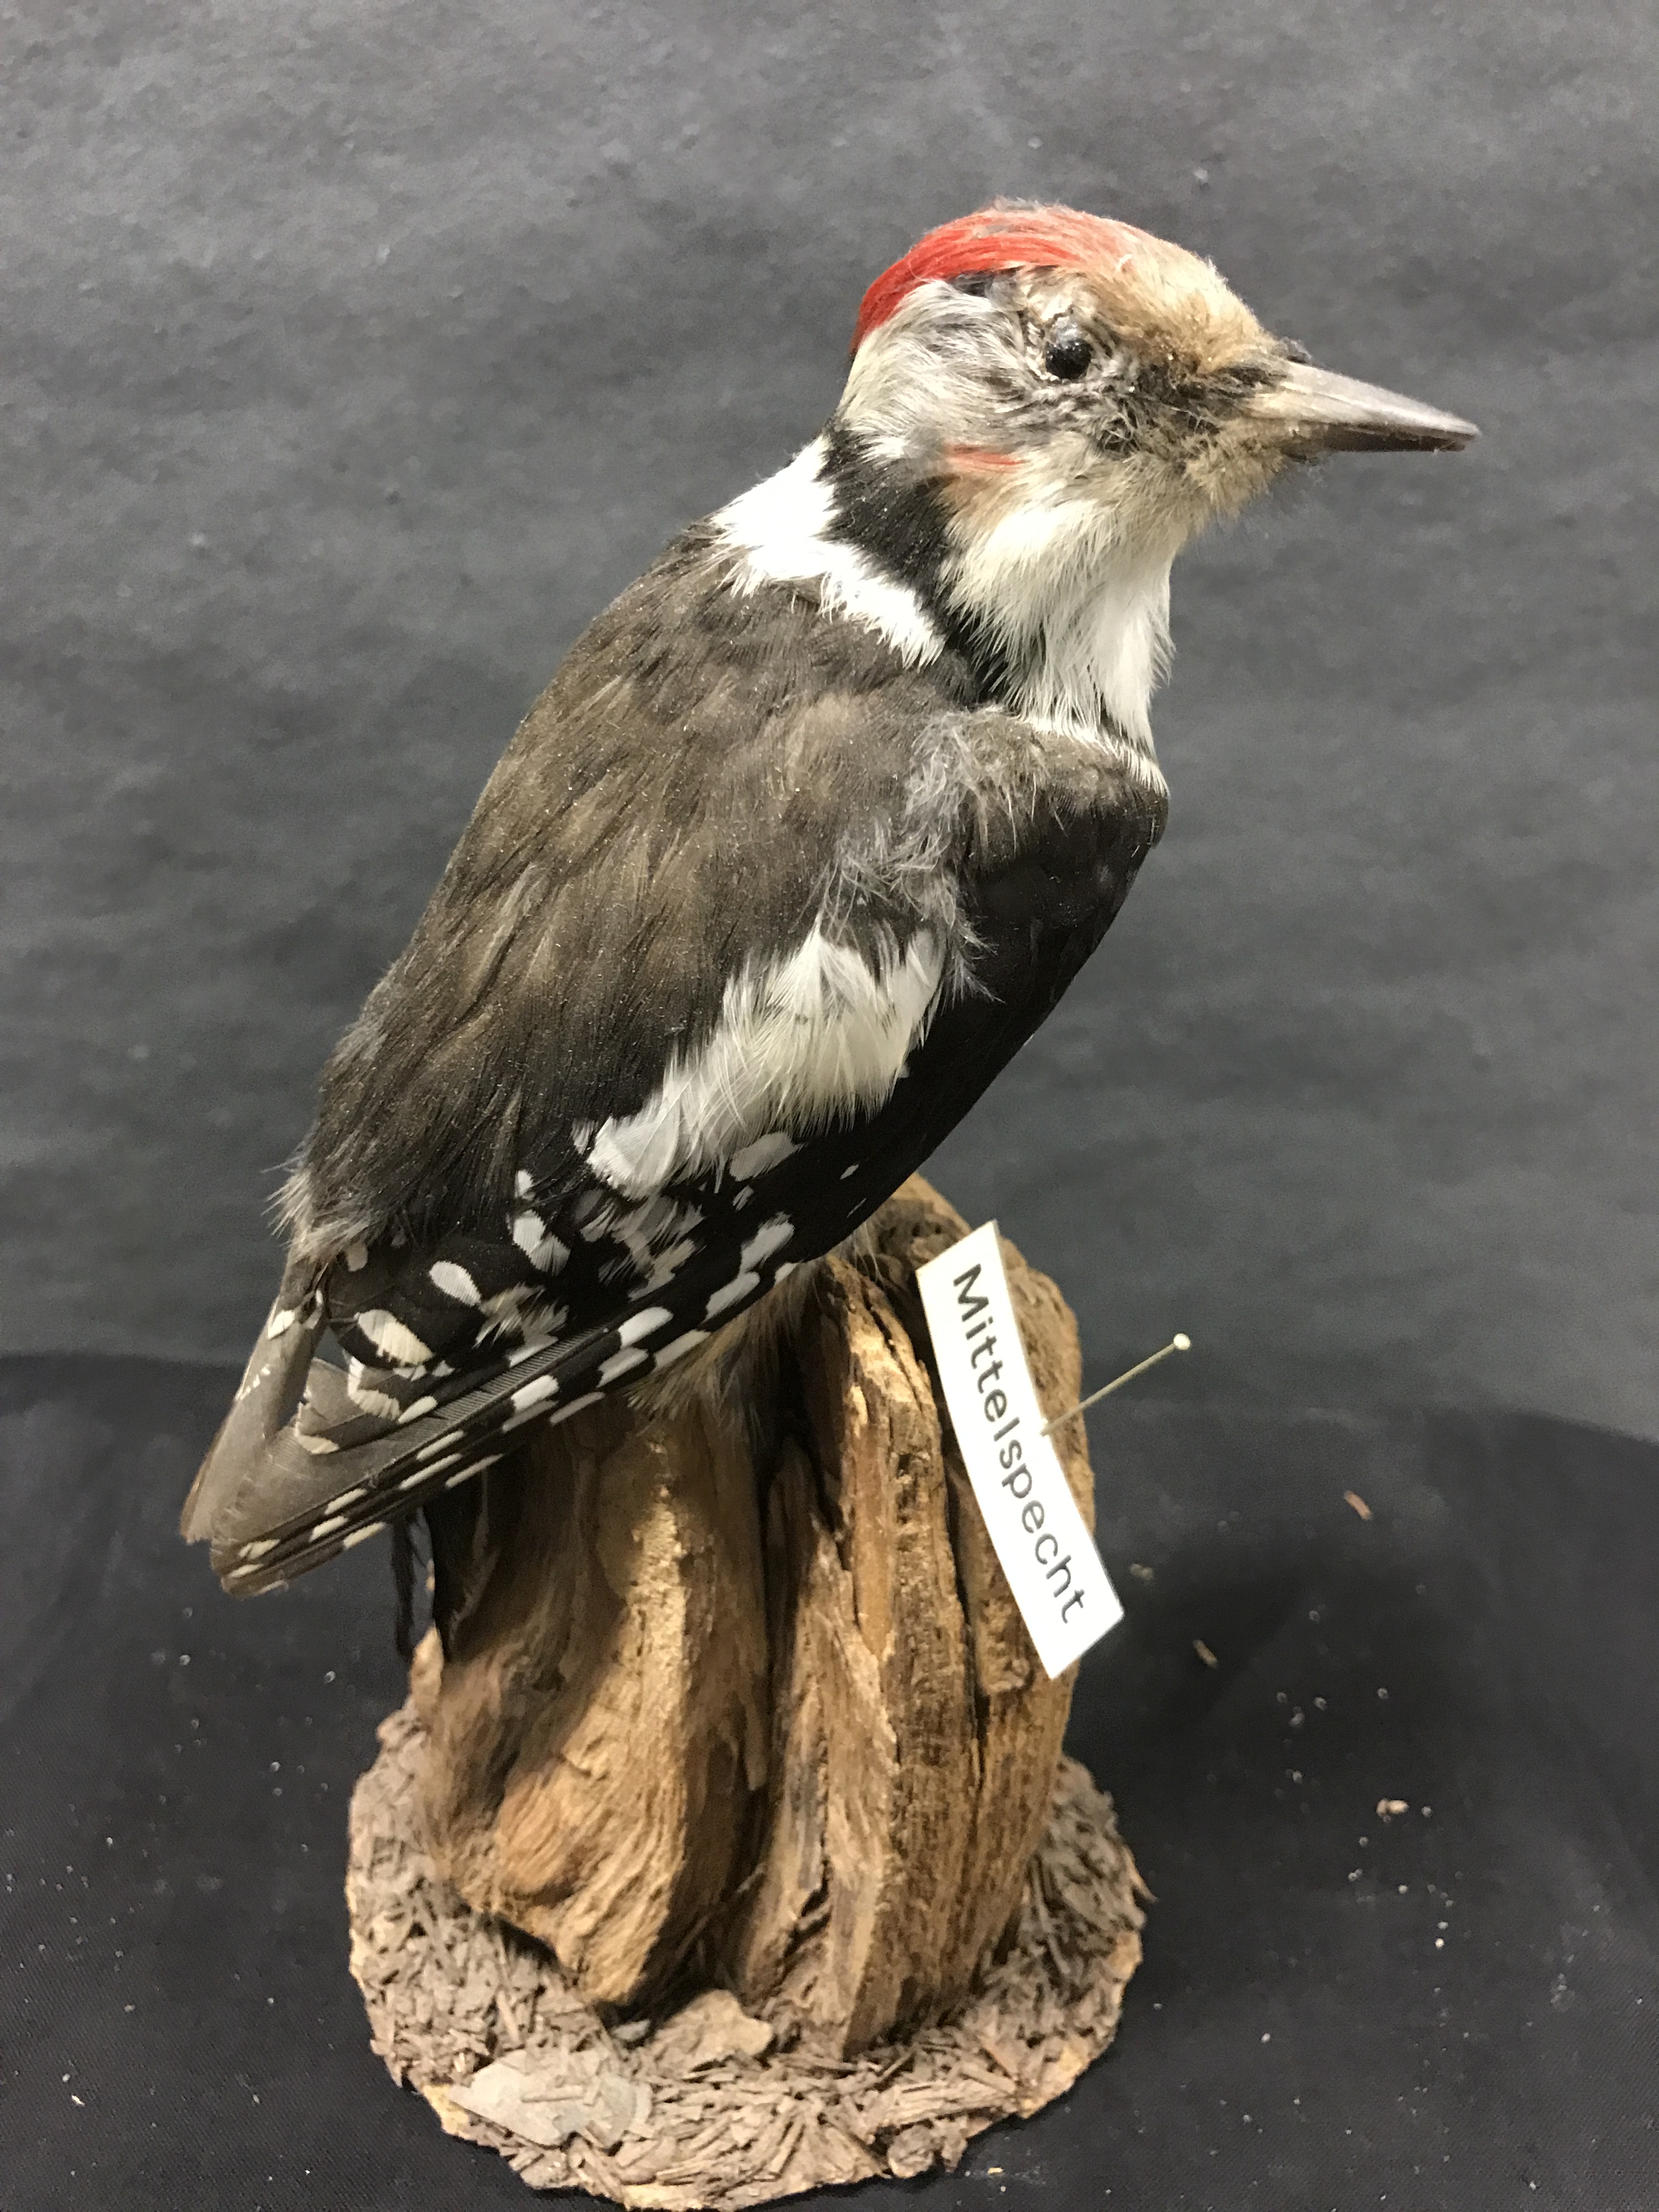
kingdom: Animalia
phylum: Chordata
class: Aves
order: Piciformes
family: Picidae
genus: Dendrocoptes
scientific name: Dendrocoptes medius
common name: Middle spotted woodpecker
